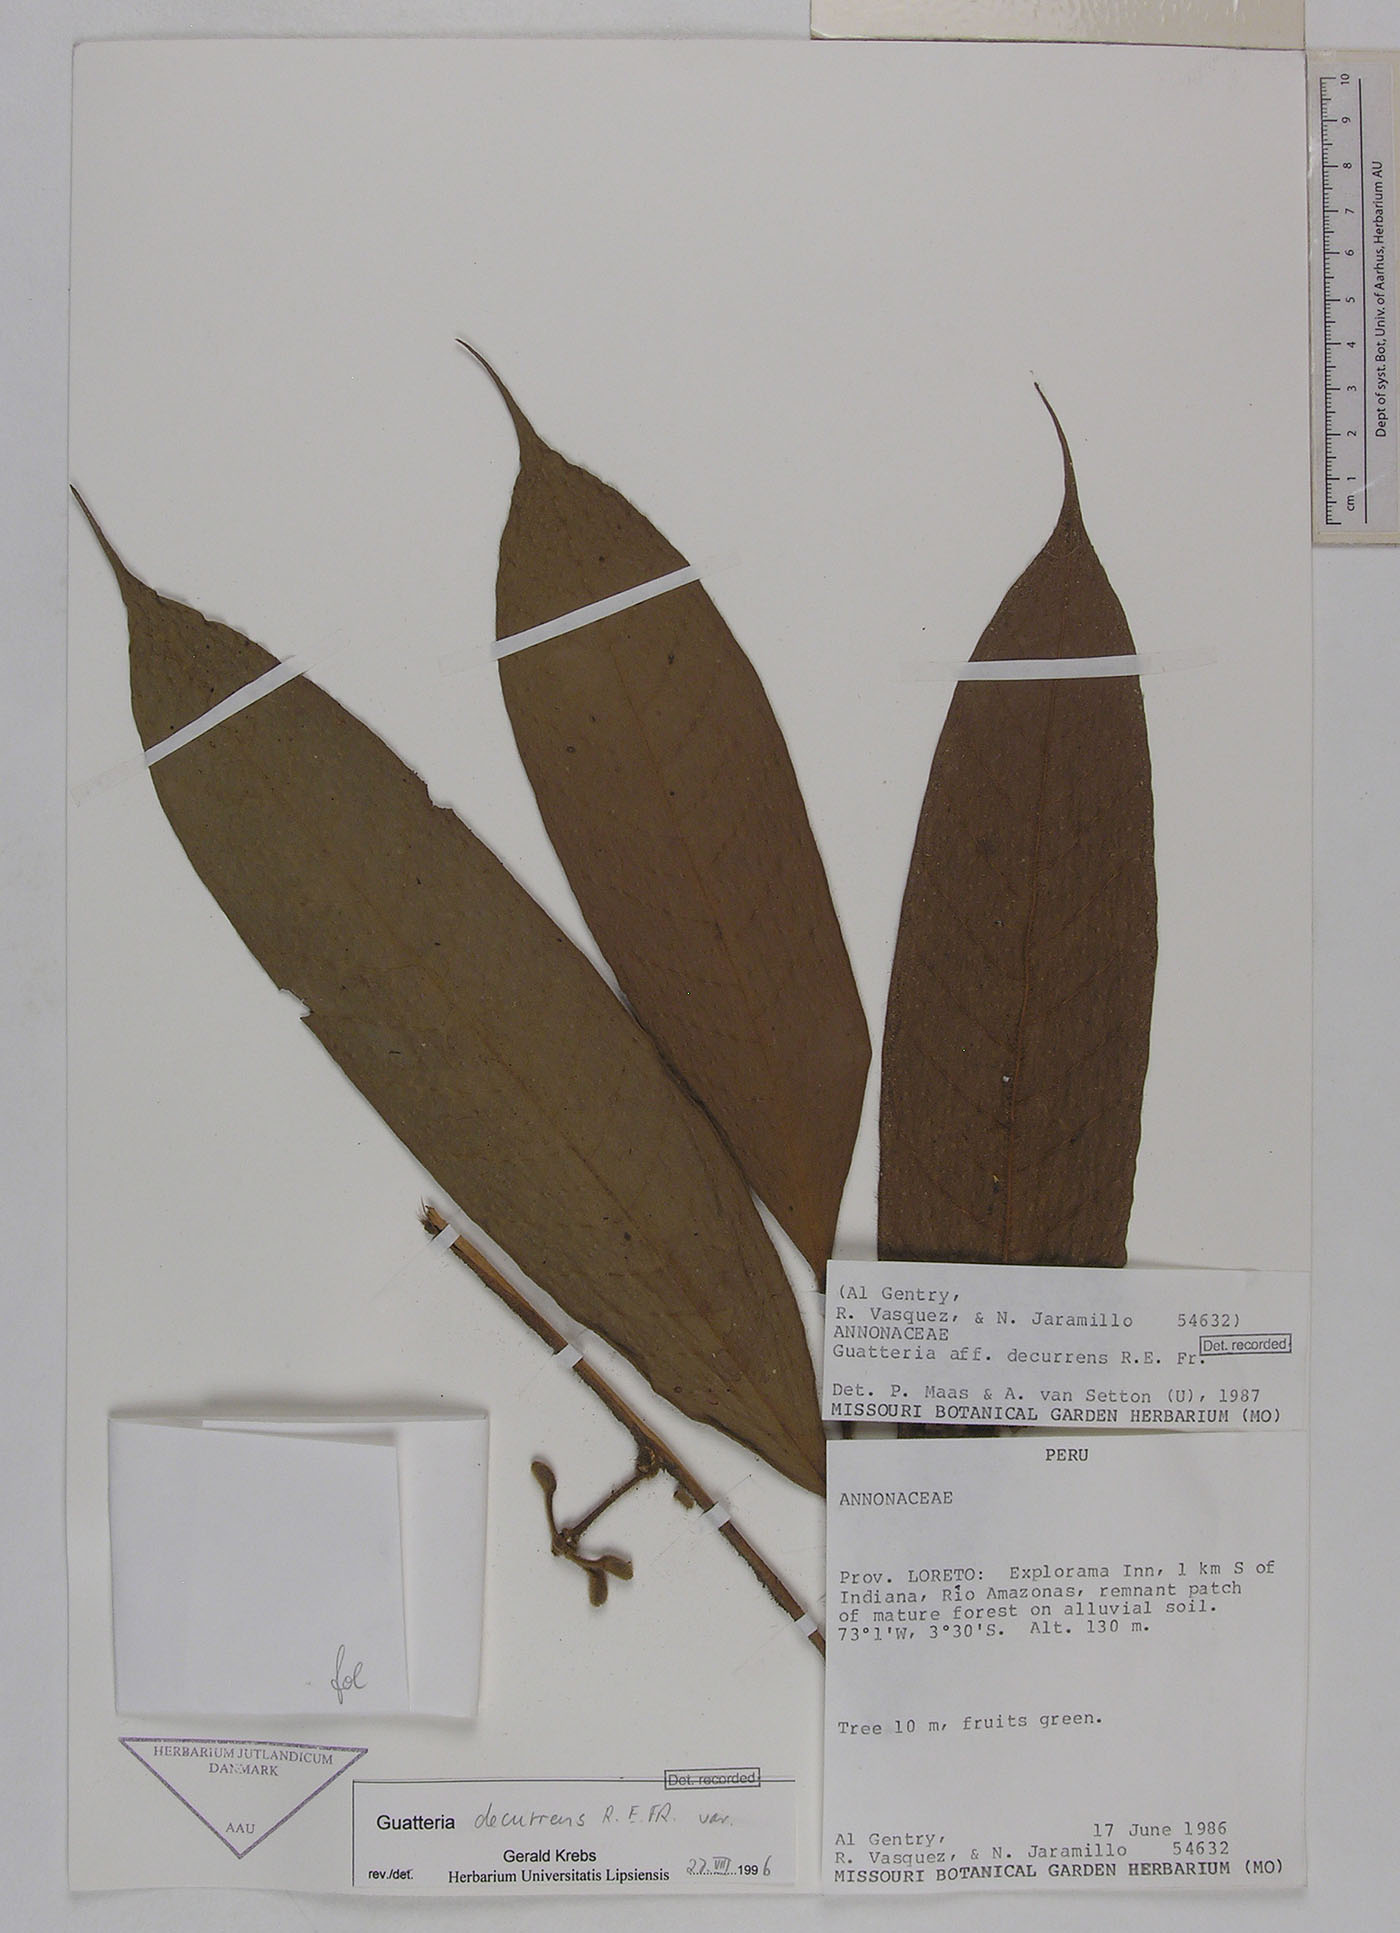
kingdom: Plantae
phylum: Tracheophyta
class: Magnoliopsida
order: Magnoliales
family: Annonaceae
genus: Guatteria
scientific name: Guatteria decurrens
